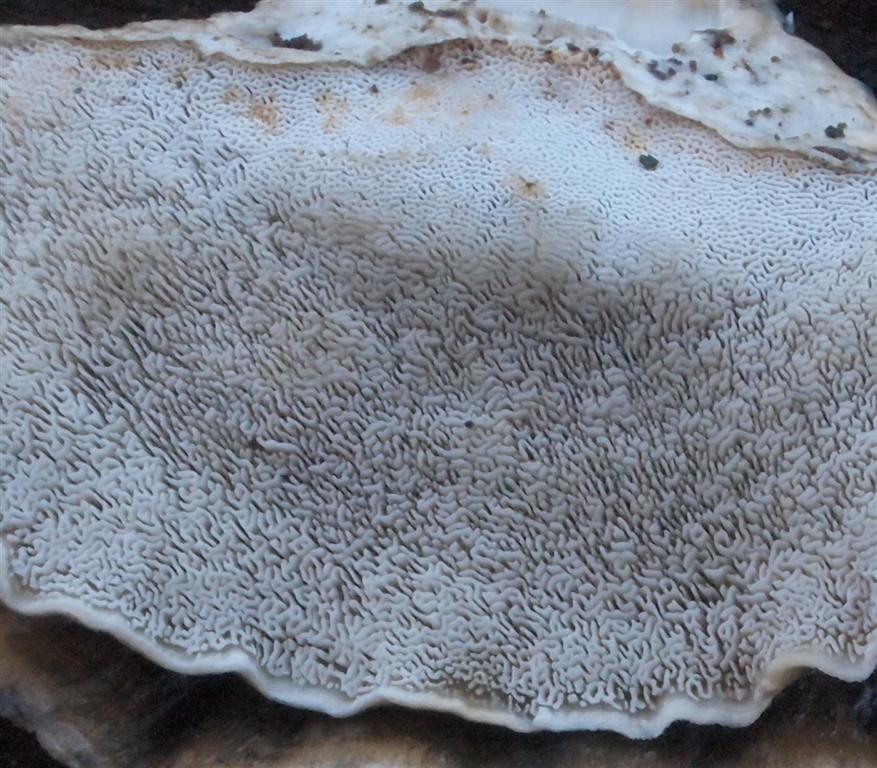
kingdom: Fungi
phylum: Basidiomycota
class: Agaricomycetes
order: Polyporales
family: Phanerochaetaceae
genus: Bjerkandera
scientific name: Bjerkandera fumosa
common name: grågul sodporesvamp
